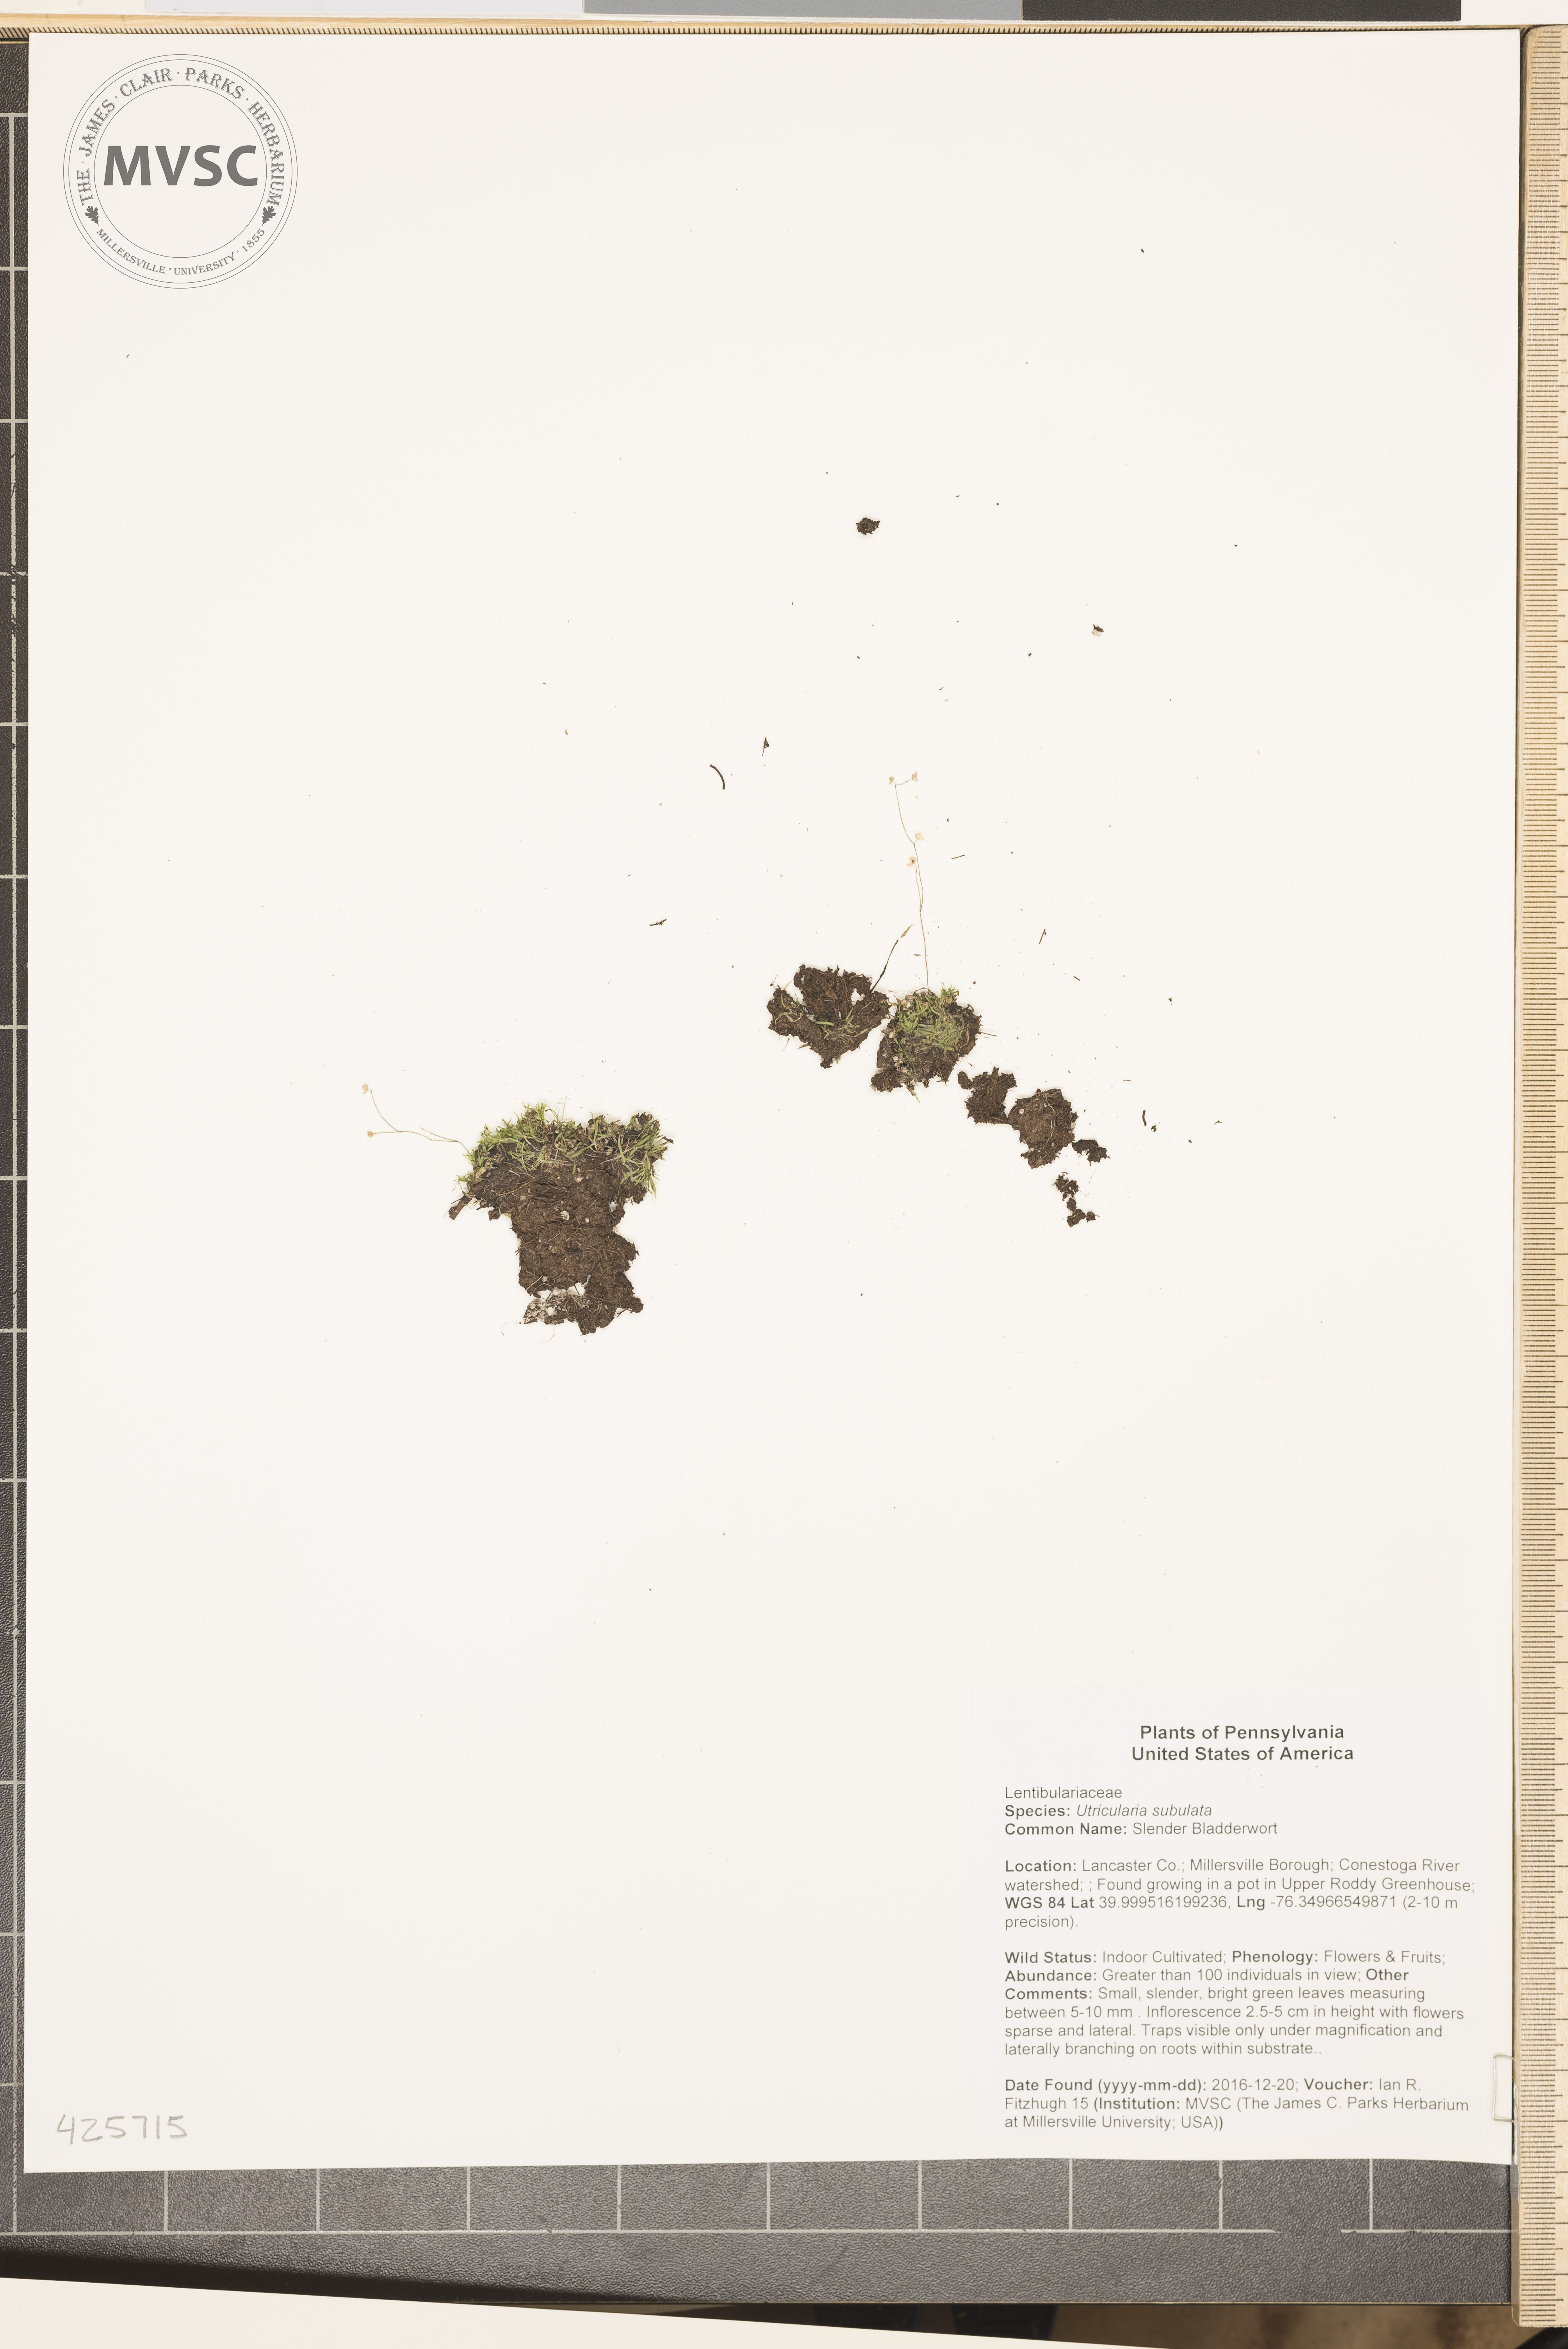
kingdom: Plantae
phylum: Tracheophyta
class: Magnoliopsida
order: Lamiales
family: Lentibulariaceae
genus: Utricularia
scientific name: Utricularia subulata
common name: Slender Bladderwort
